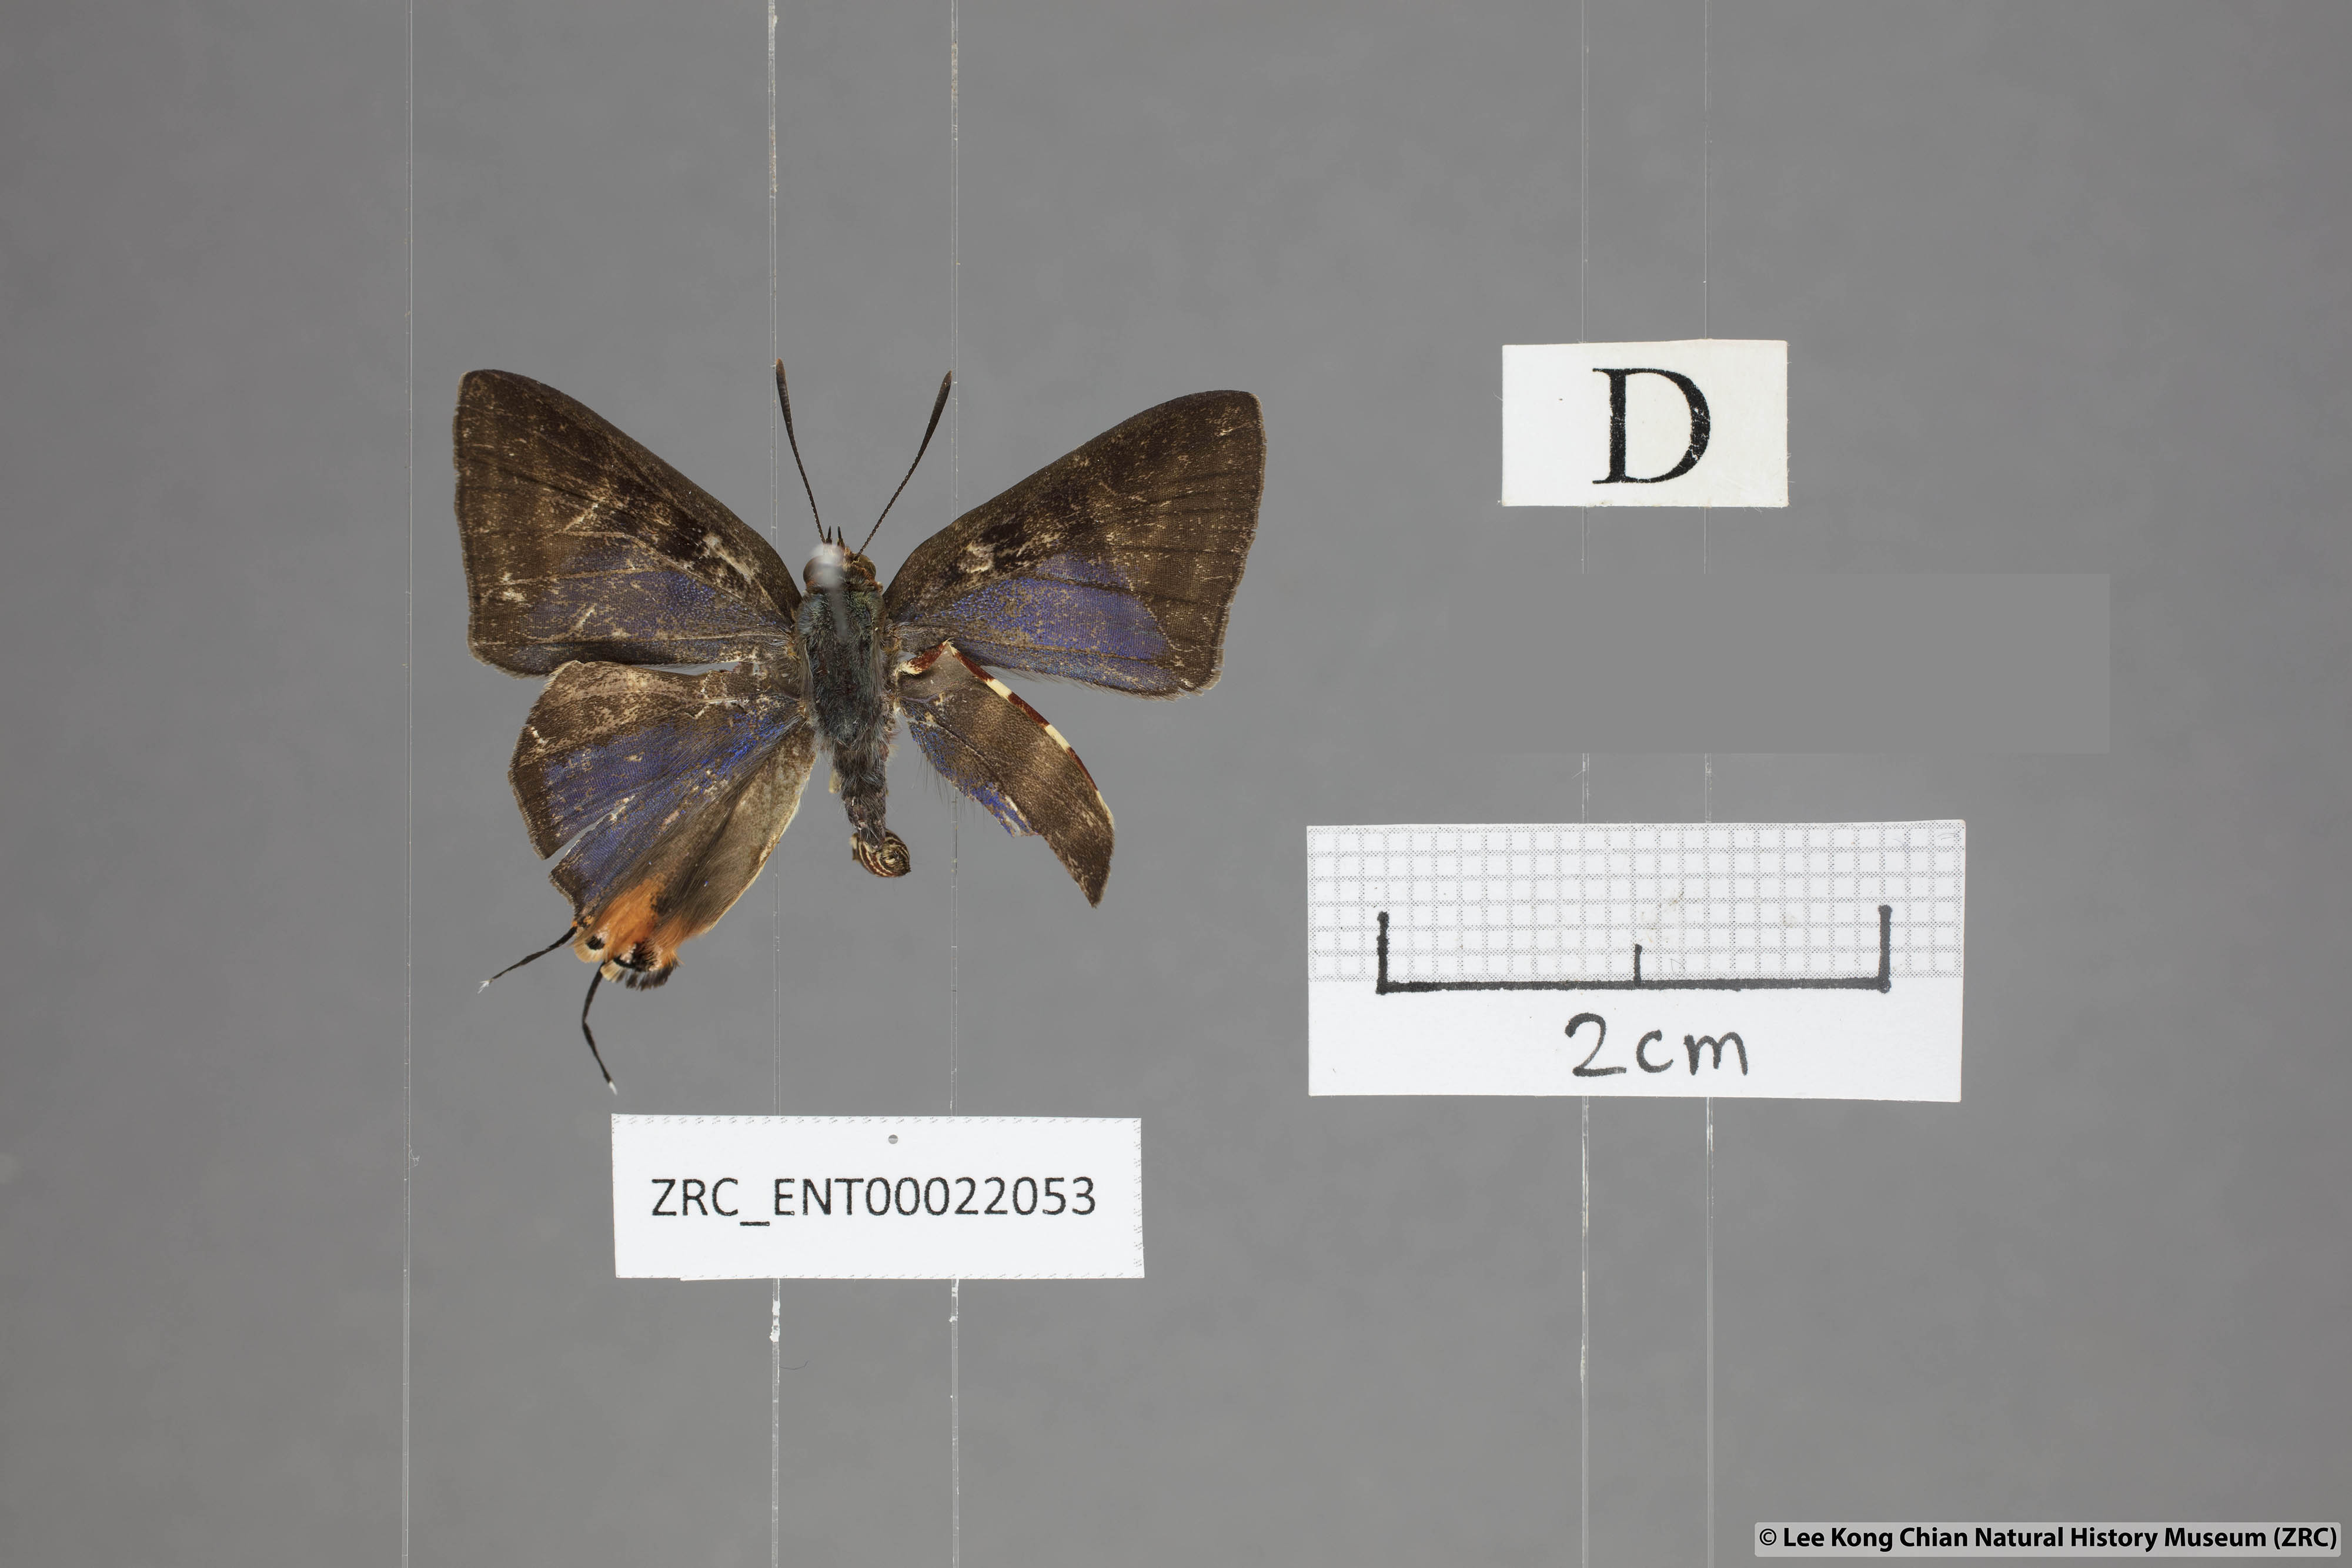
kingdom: Animalia
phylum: Arthropoda
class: Insecta
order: Lepidoptera
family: Lycaenidae
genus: Spindasis
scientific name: Spindasis kutu
